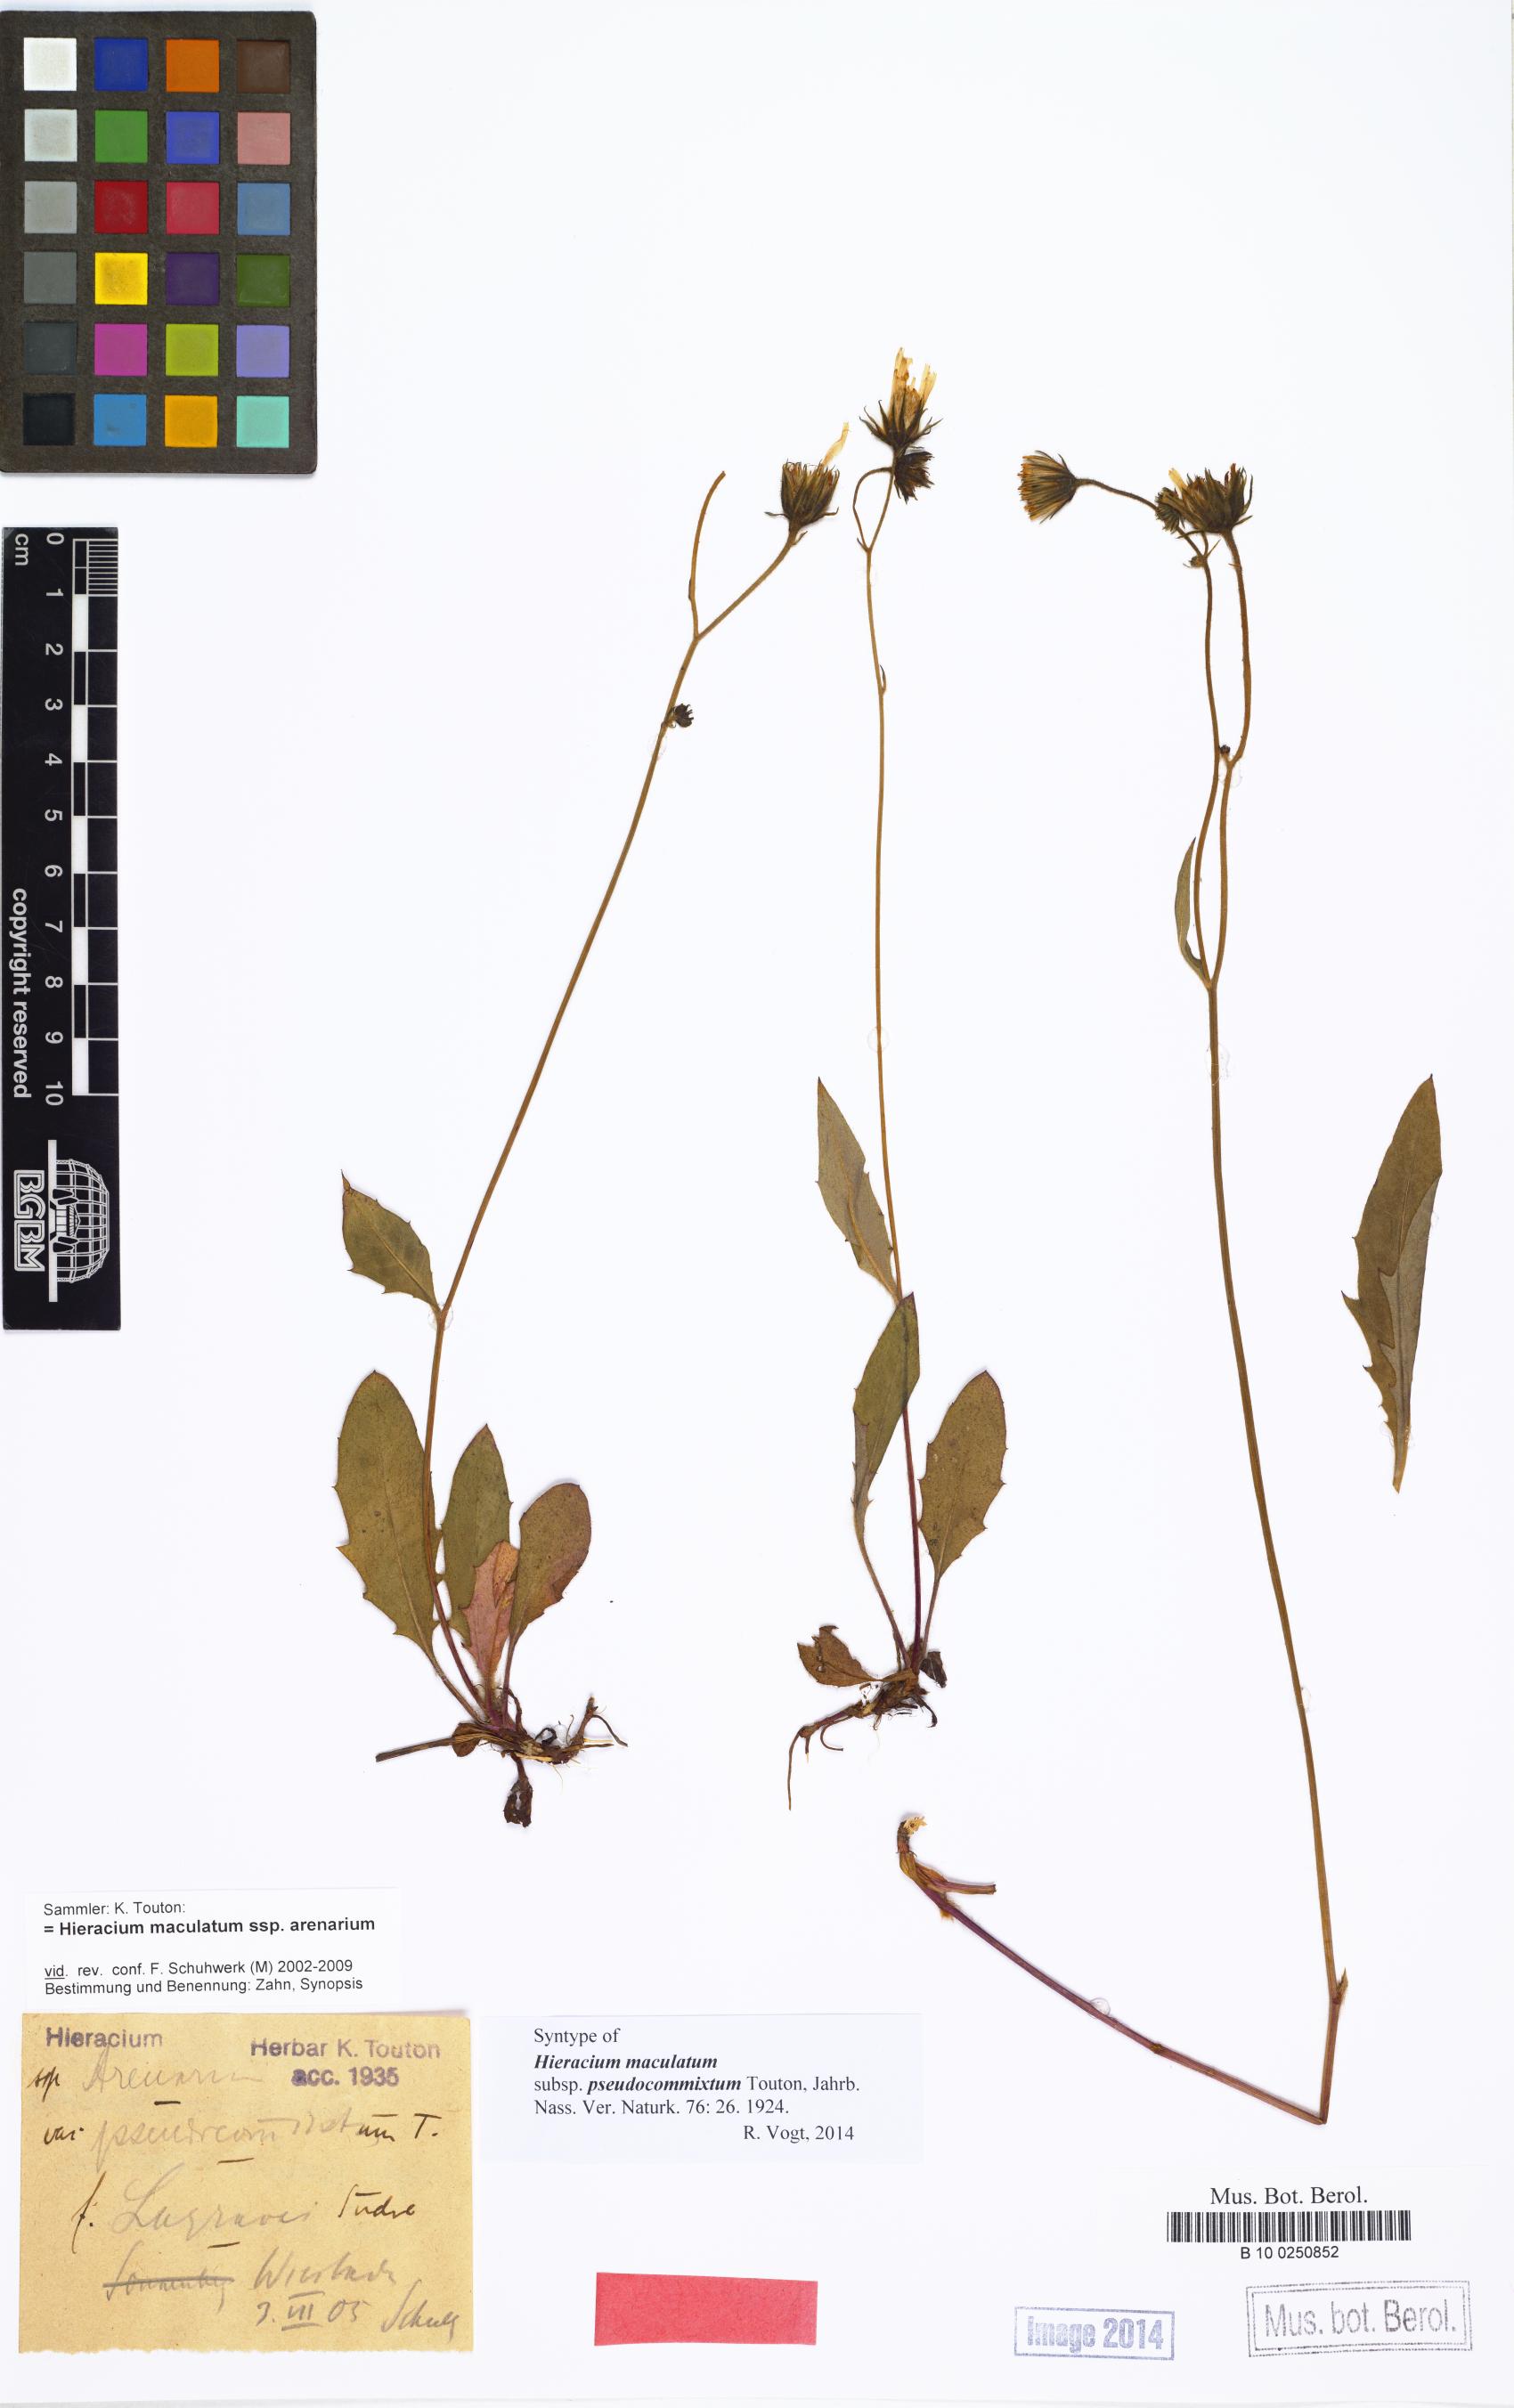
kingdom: Plantae
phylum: Tracheophyta
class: Magnoliopsida
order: Asterales
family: Asteraceae
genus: Hieracium
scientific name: Hieracium maculatum
